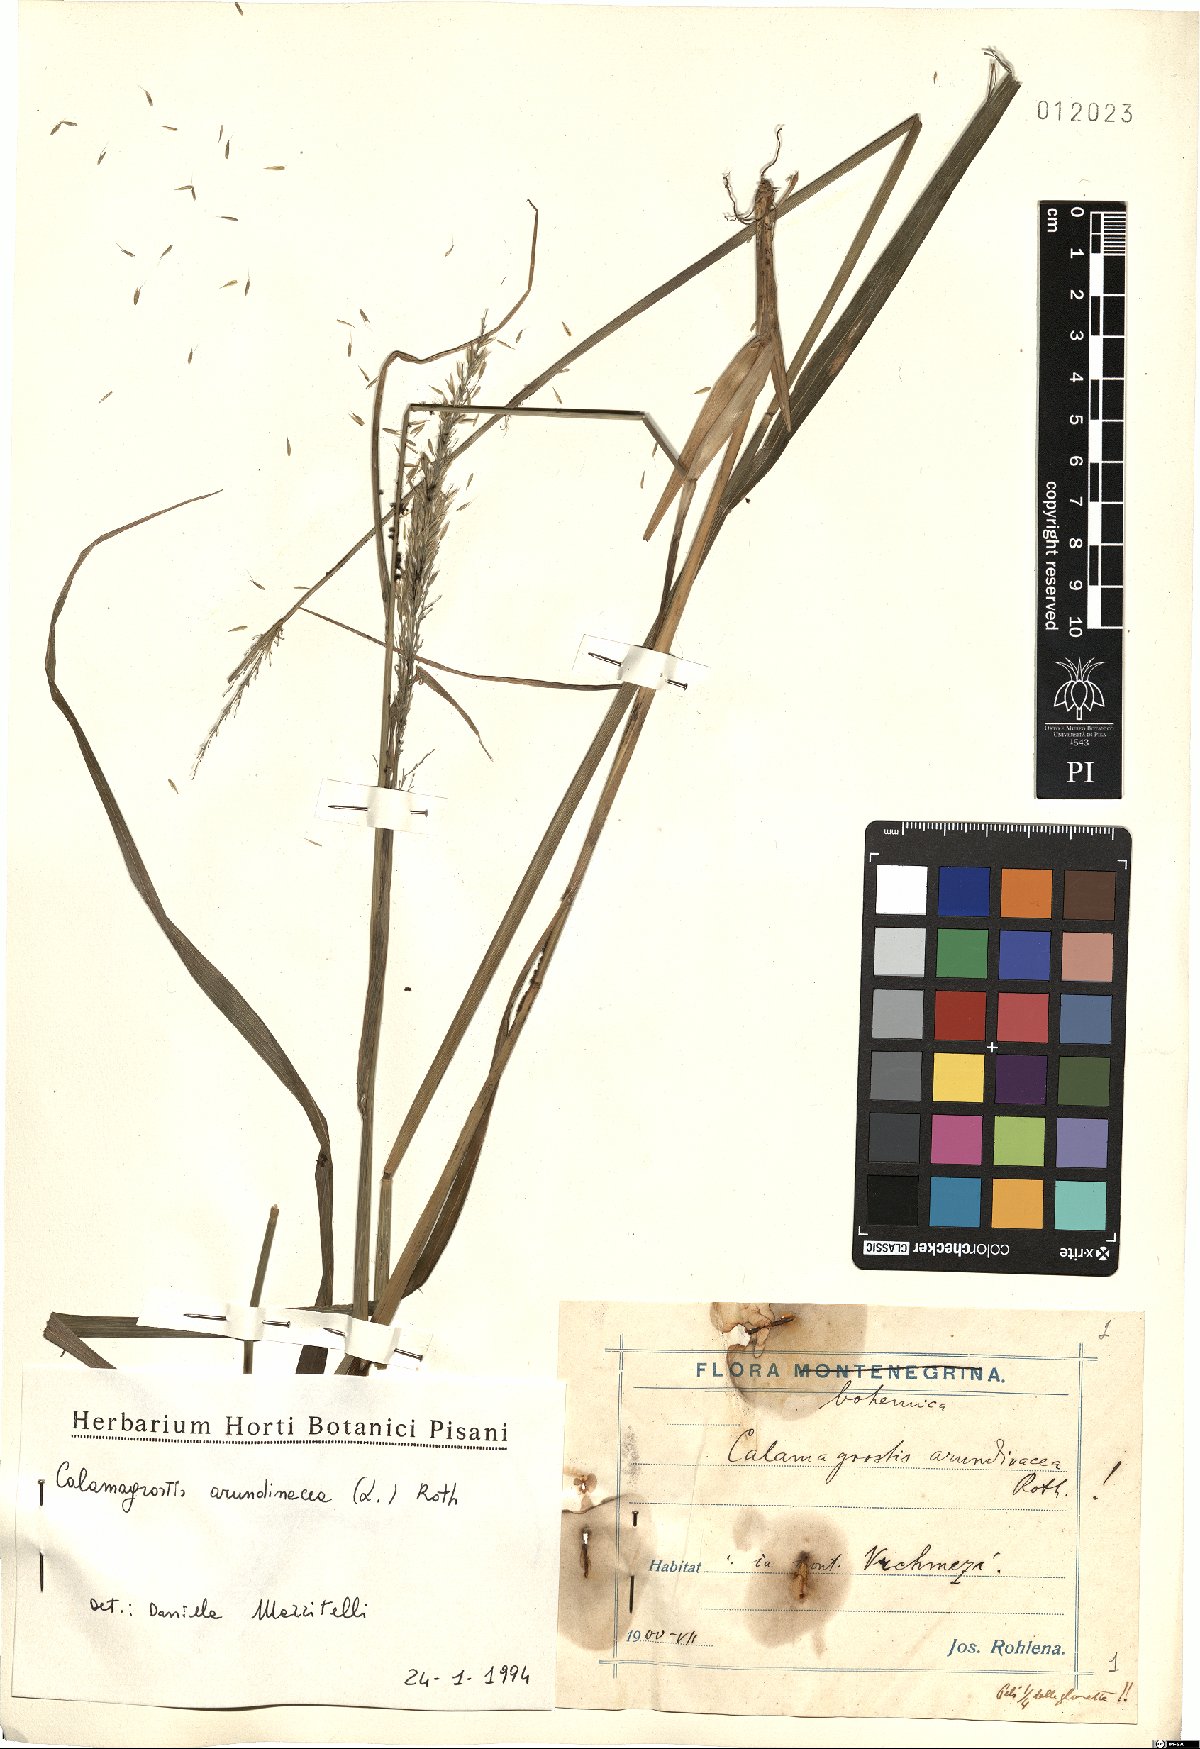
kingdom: Plantae
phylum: Tracheophyta
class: Liliopsida
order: Poales
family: Poaceae
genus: Calamagrostis
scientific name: Calamagrostis arundinacea
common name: Metskastik
